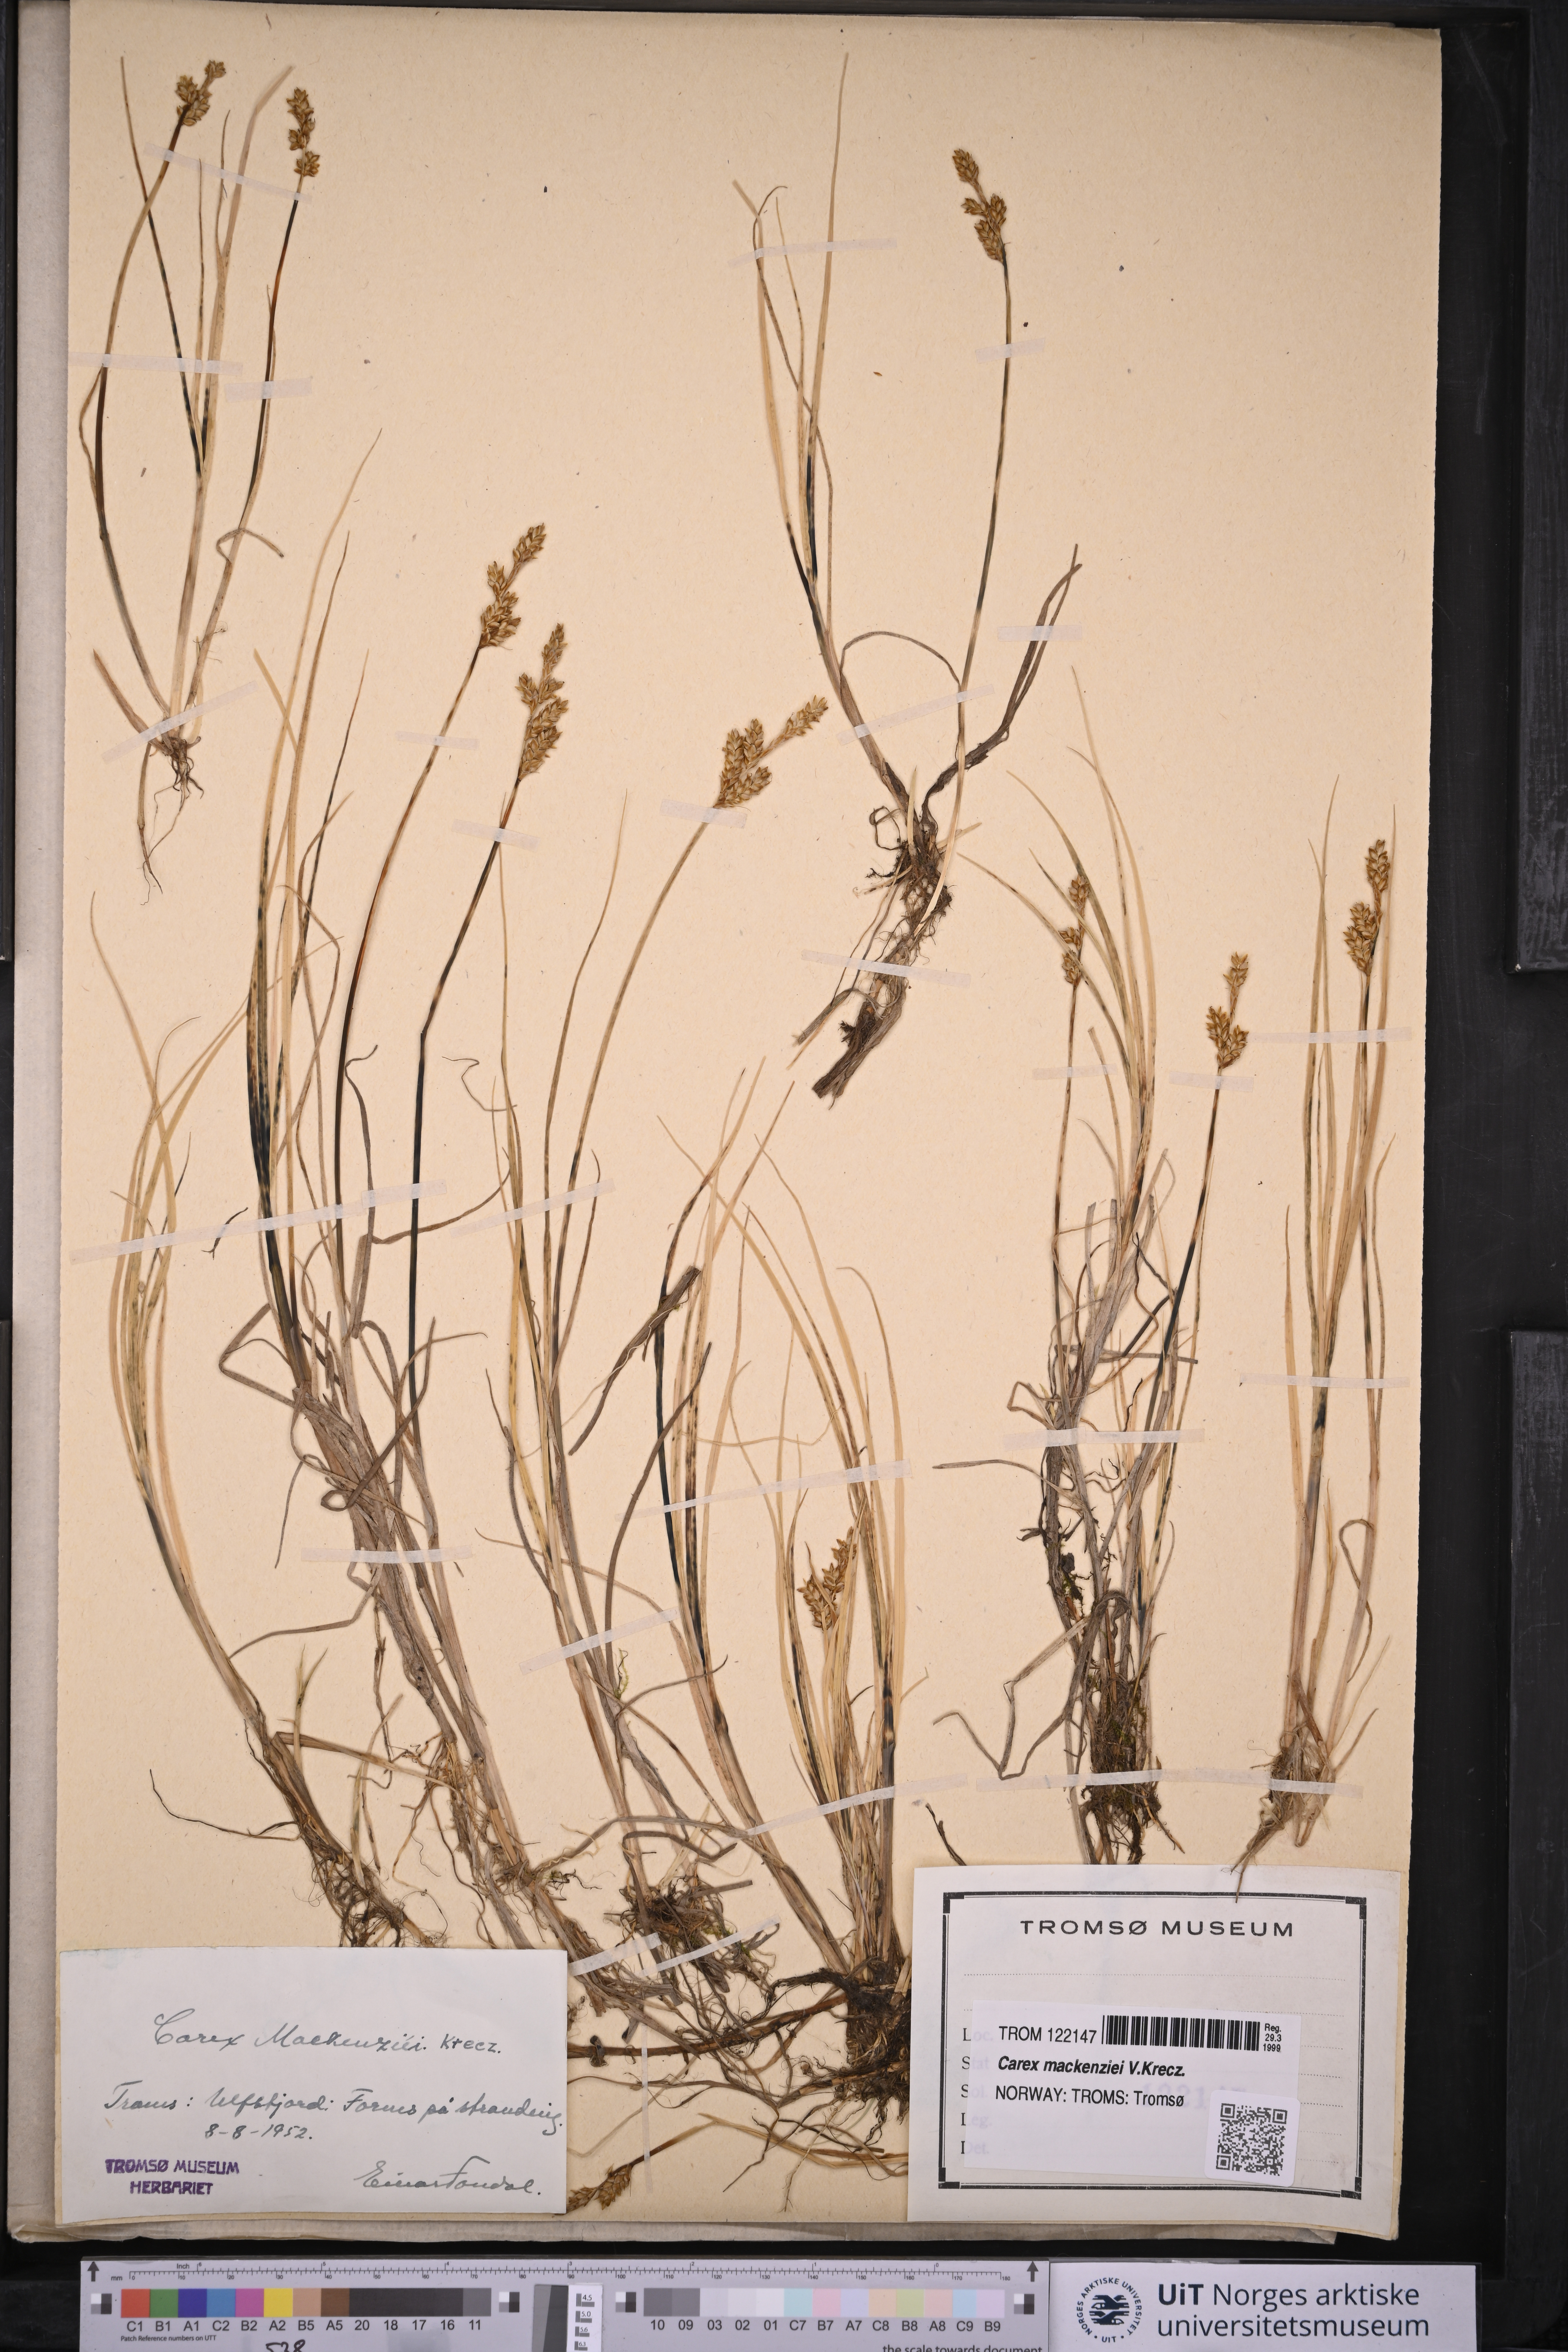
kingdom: Plantae
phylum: Tracheophyta
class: Liliopsida
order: Poales
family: Cyperaceae
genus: Carex
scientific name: Carex mackenziei
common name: Mackenzie's sedge
